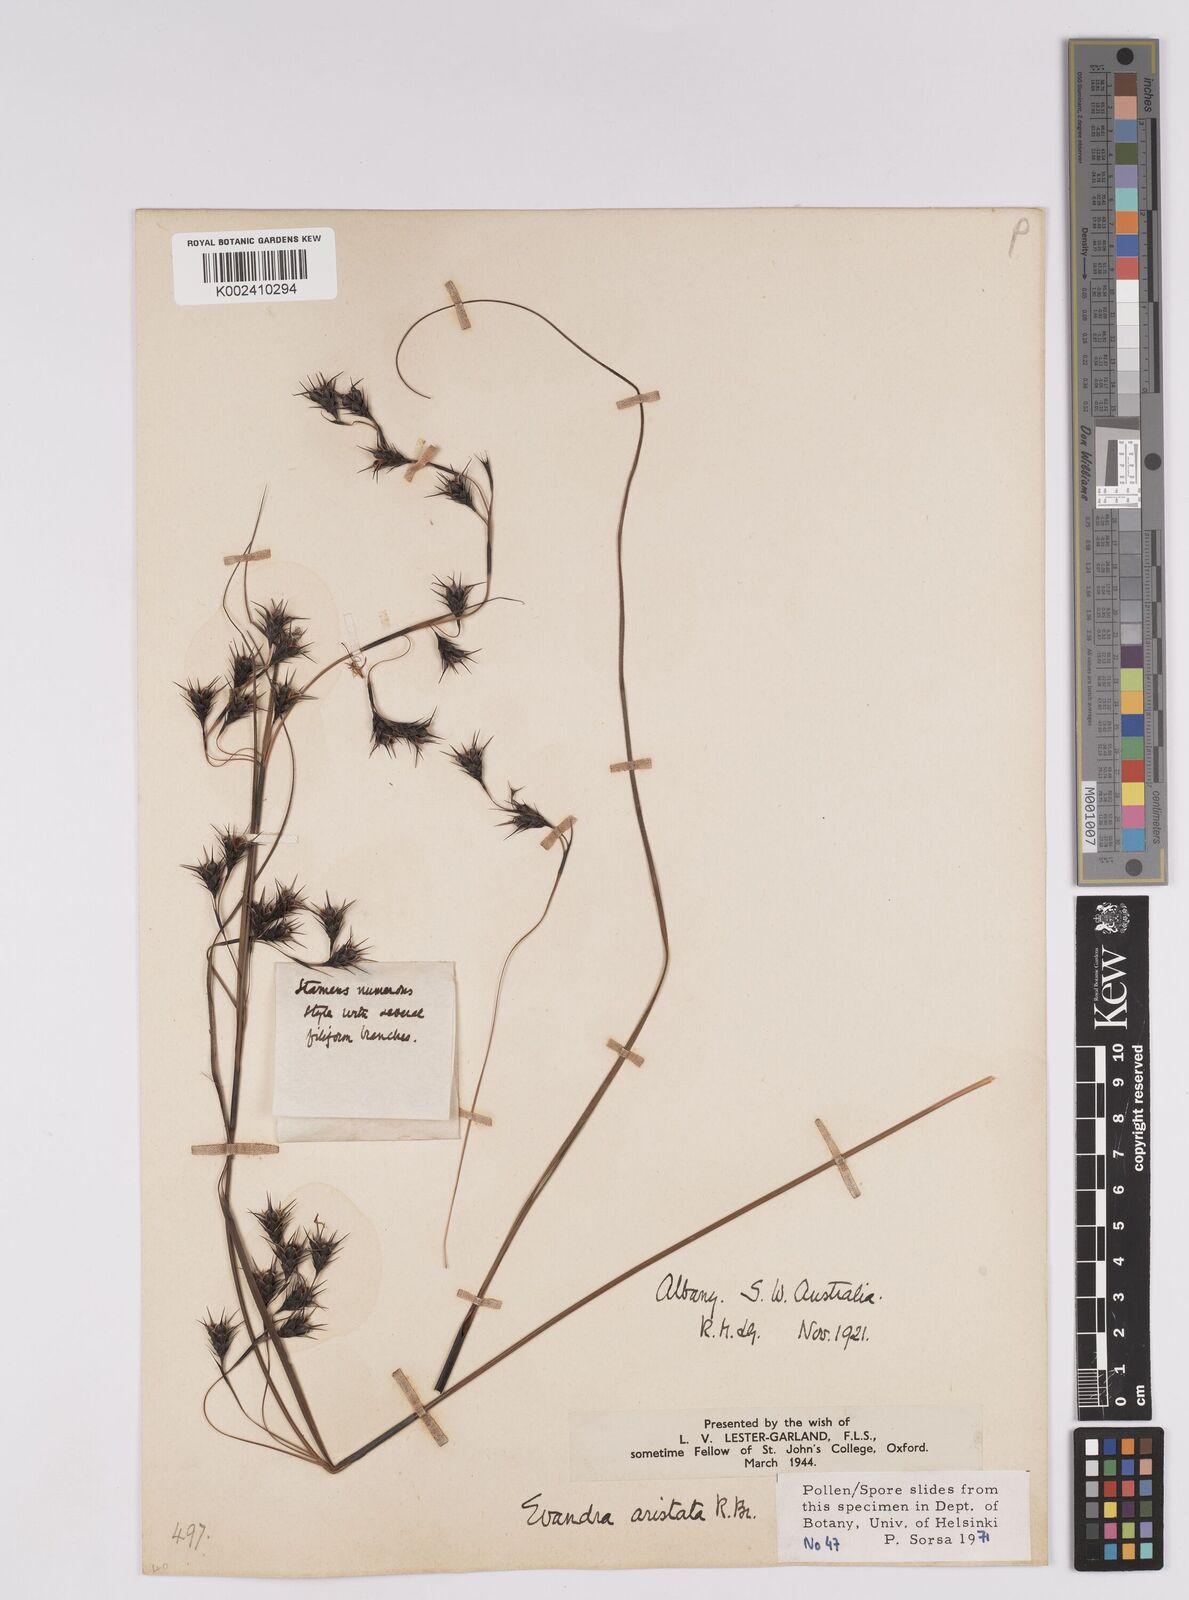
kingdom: Plantae
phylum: Tracheophyta
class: Liliopsida
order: Poales
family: Cyperaceae
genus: Evandra
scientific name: Evandra aristata
